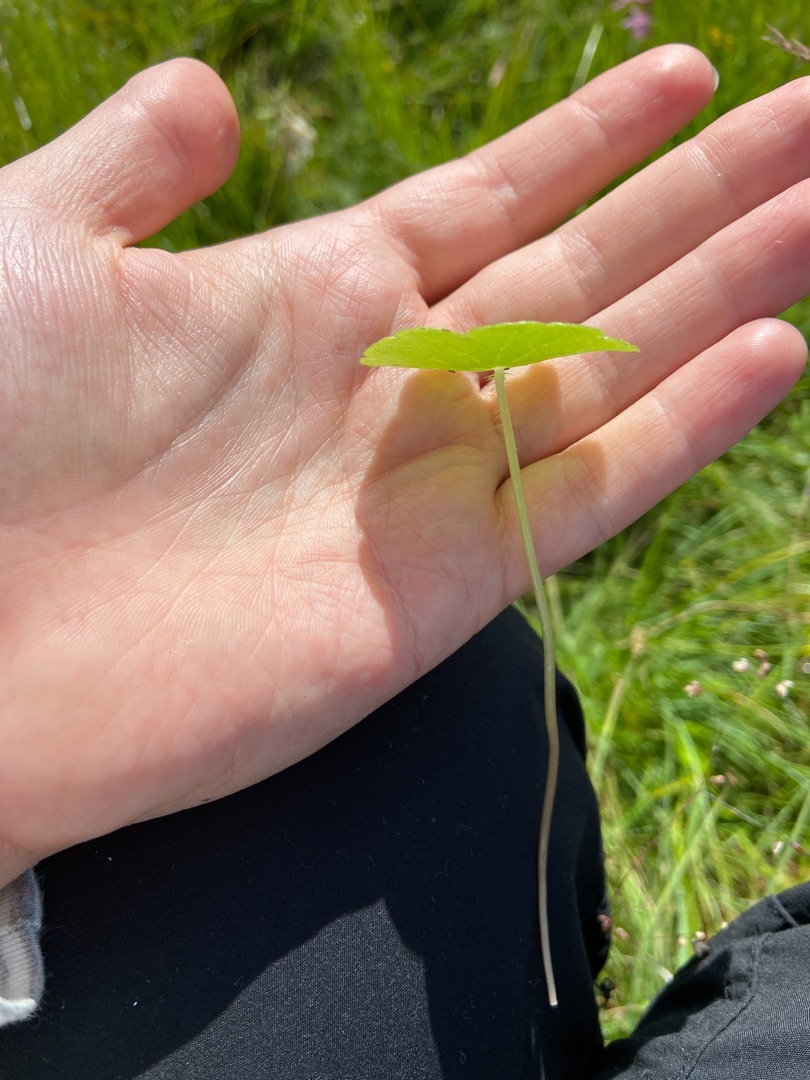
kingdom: Plantae
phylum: Tracheophyta
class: Magnoliopsida
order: Apiales
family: Araliaceae
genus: Hydrocotyle
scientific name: Hydrocotyle vulgaris
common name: Vandnavle
